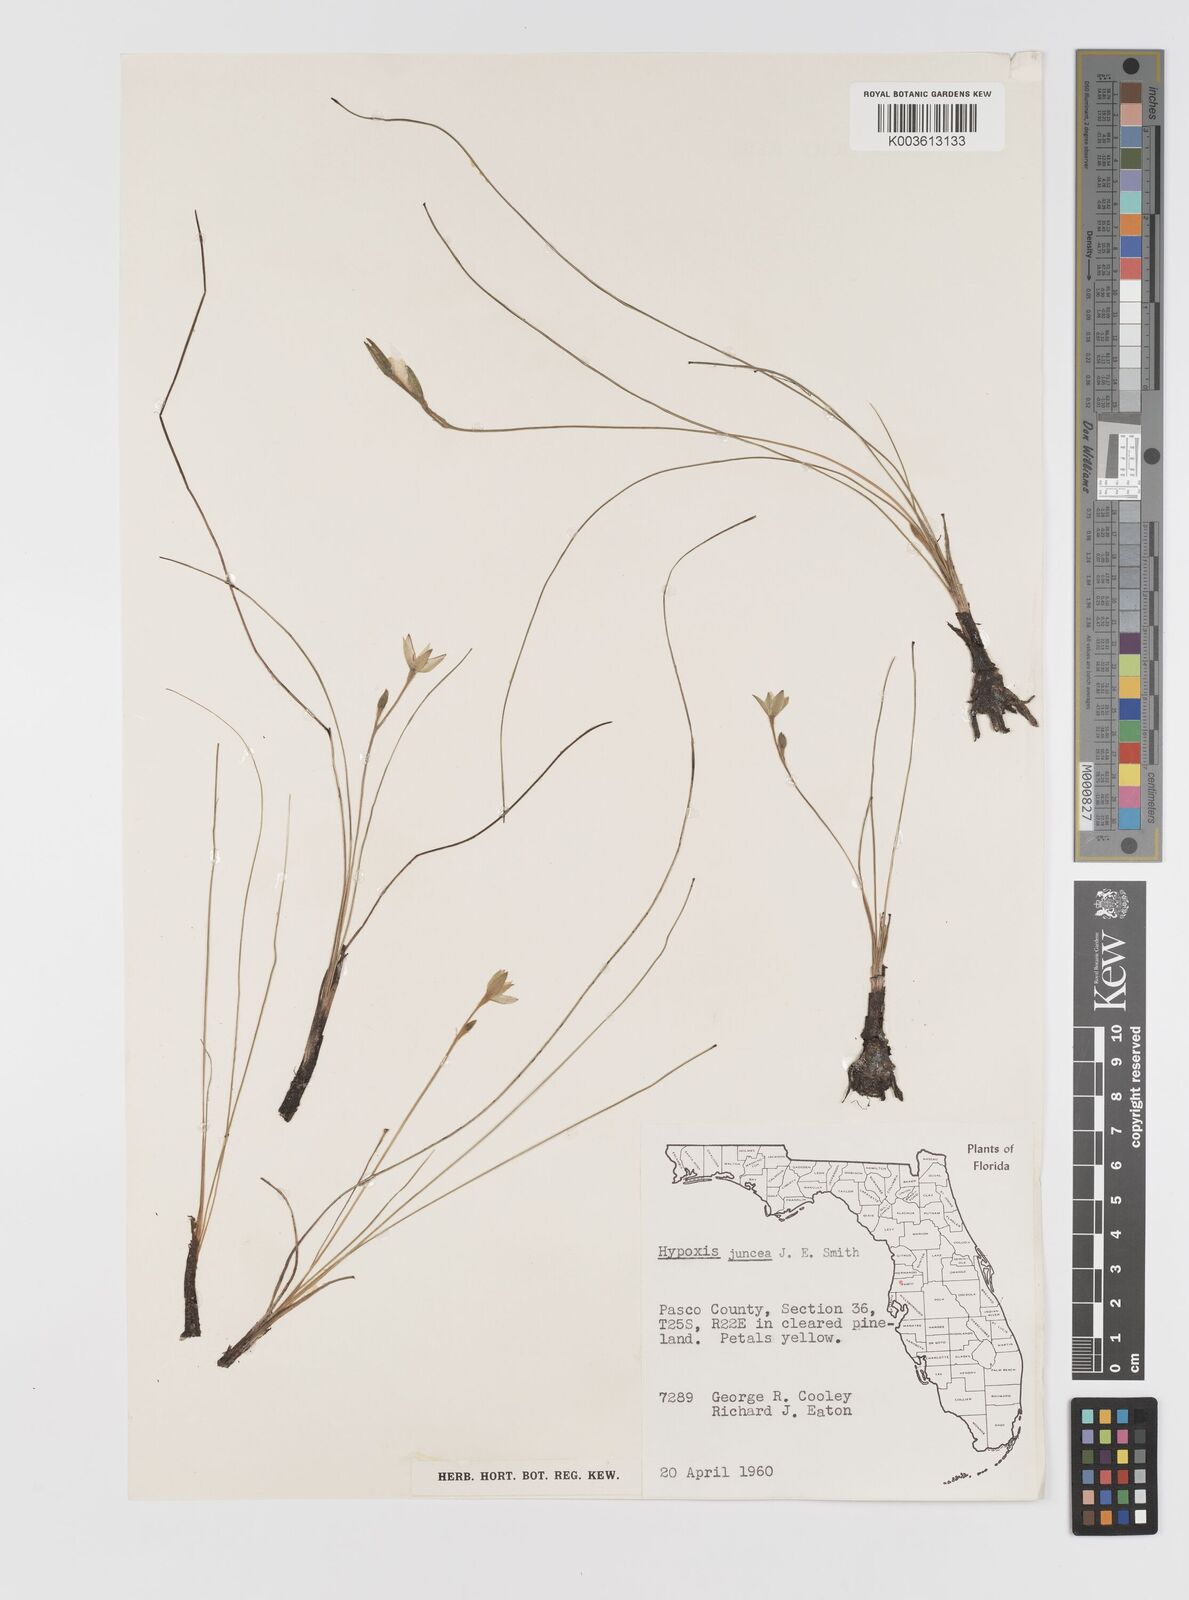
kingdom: Plantae
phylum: Tracheophyta
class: Liliopsida
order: Asparagales
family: Hypoxidaceae
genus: Hypoxis
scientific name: Hypoxis juncea
